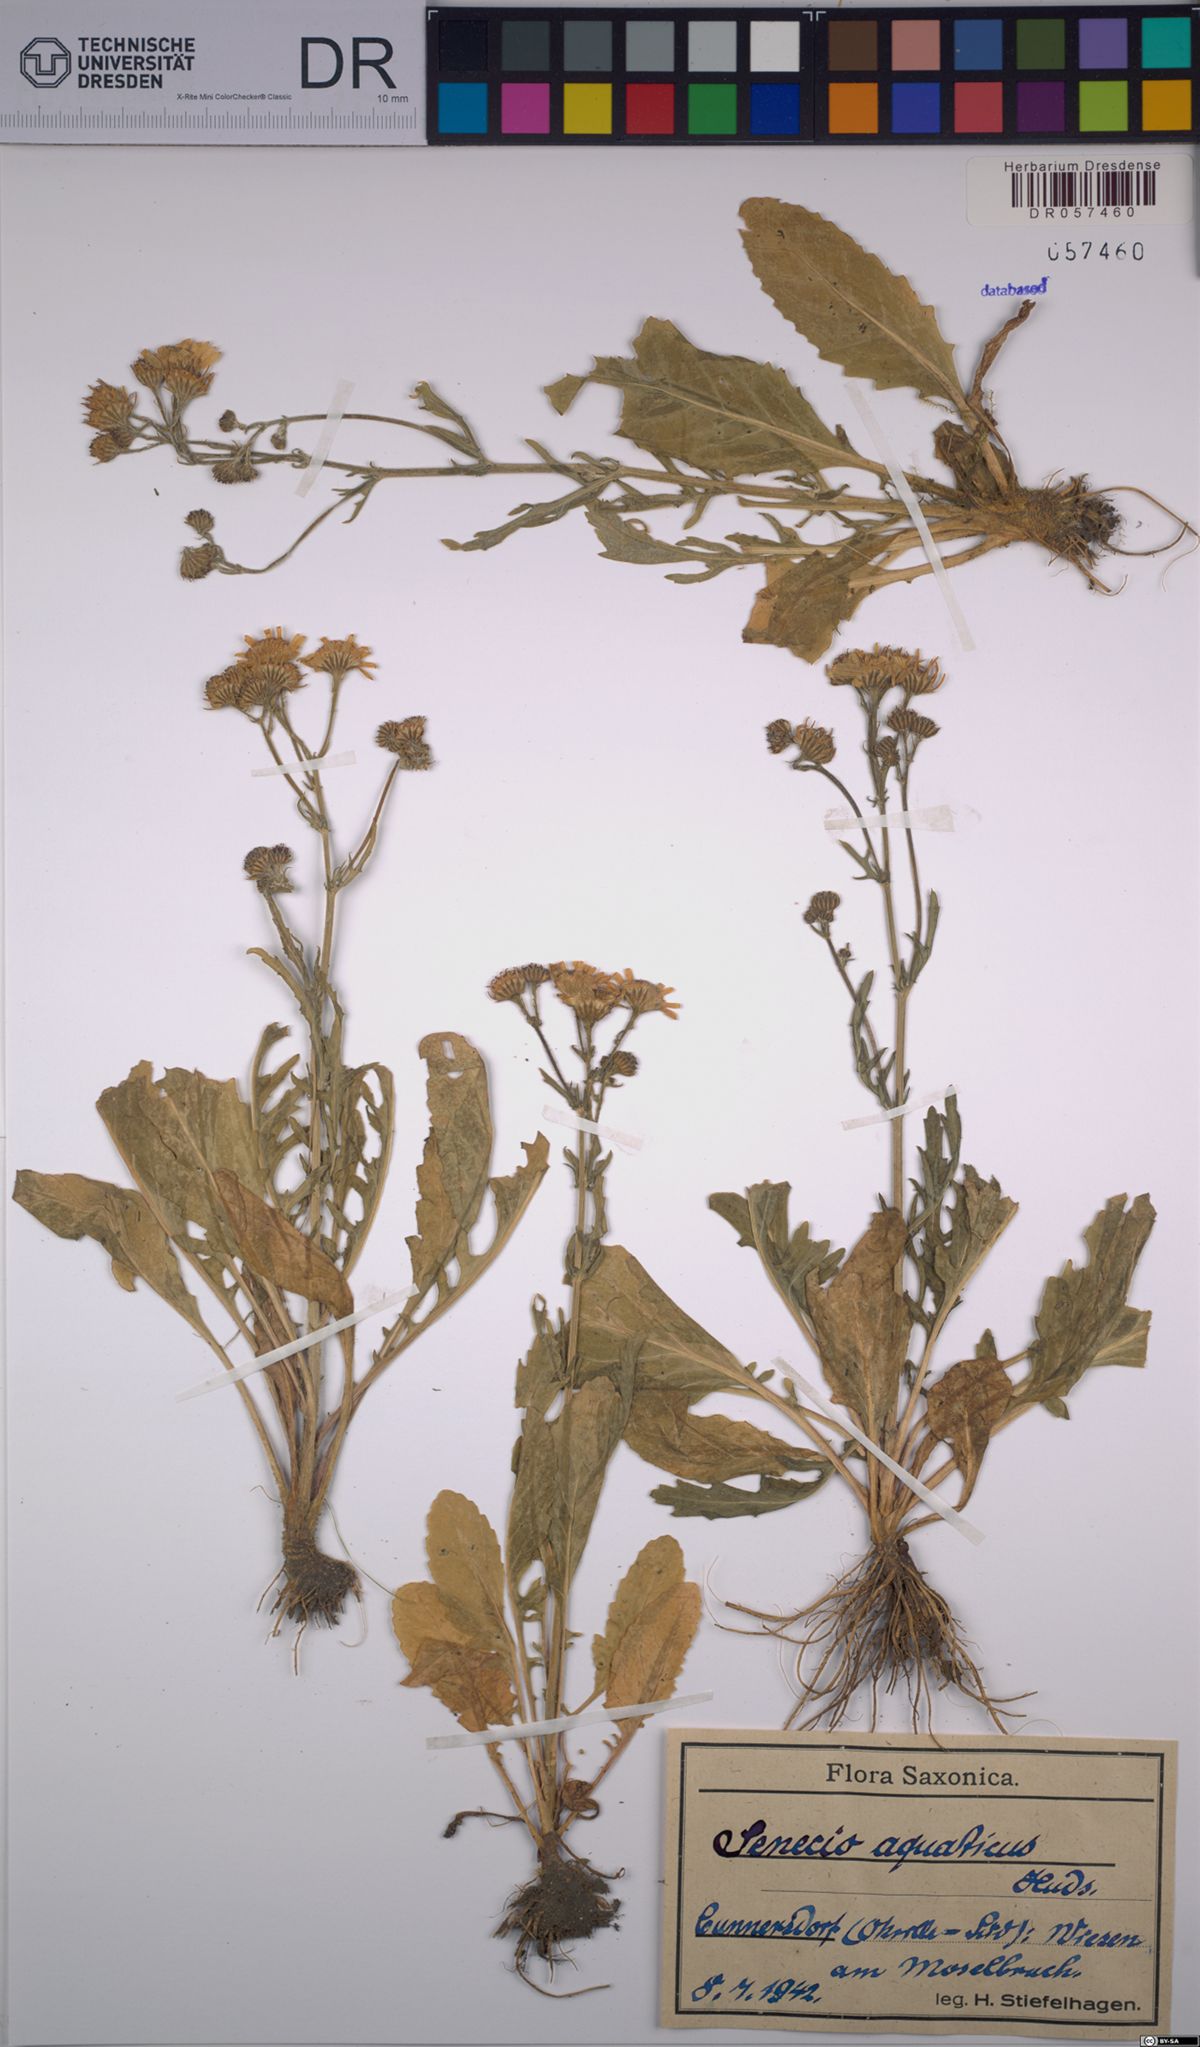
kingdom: Plantae
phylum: Tracheophyta
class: Magnoliopsida
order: Asterales
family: Asteraceae
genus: Jacobaea
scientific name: Jacobaea aquatica
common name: Water ragwort
